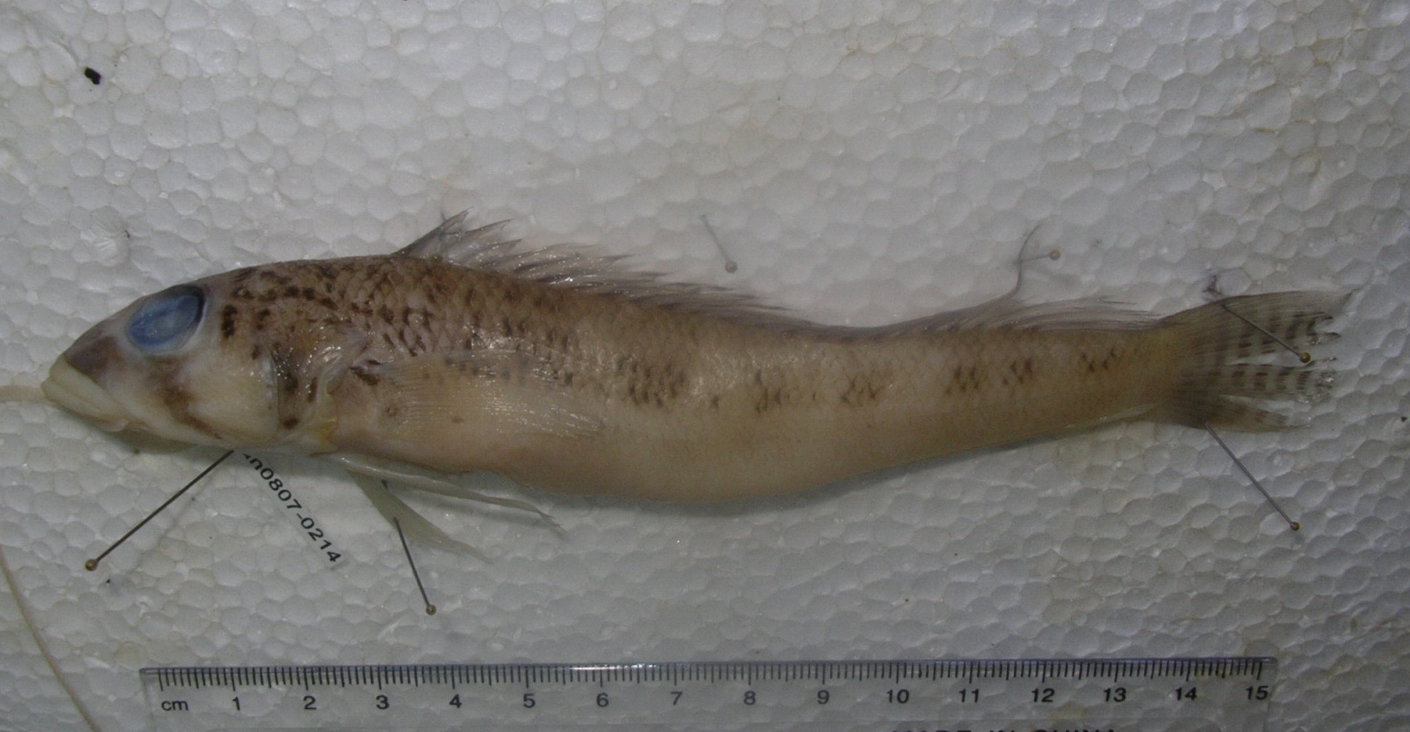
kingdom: Animalia
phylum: Chordata
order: Perciformes
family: Pinguipedidae
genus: Parapercis
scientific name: Parapercis somaliensis
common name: Weeping sandsmelt
